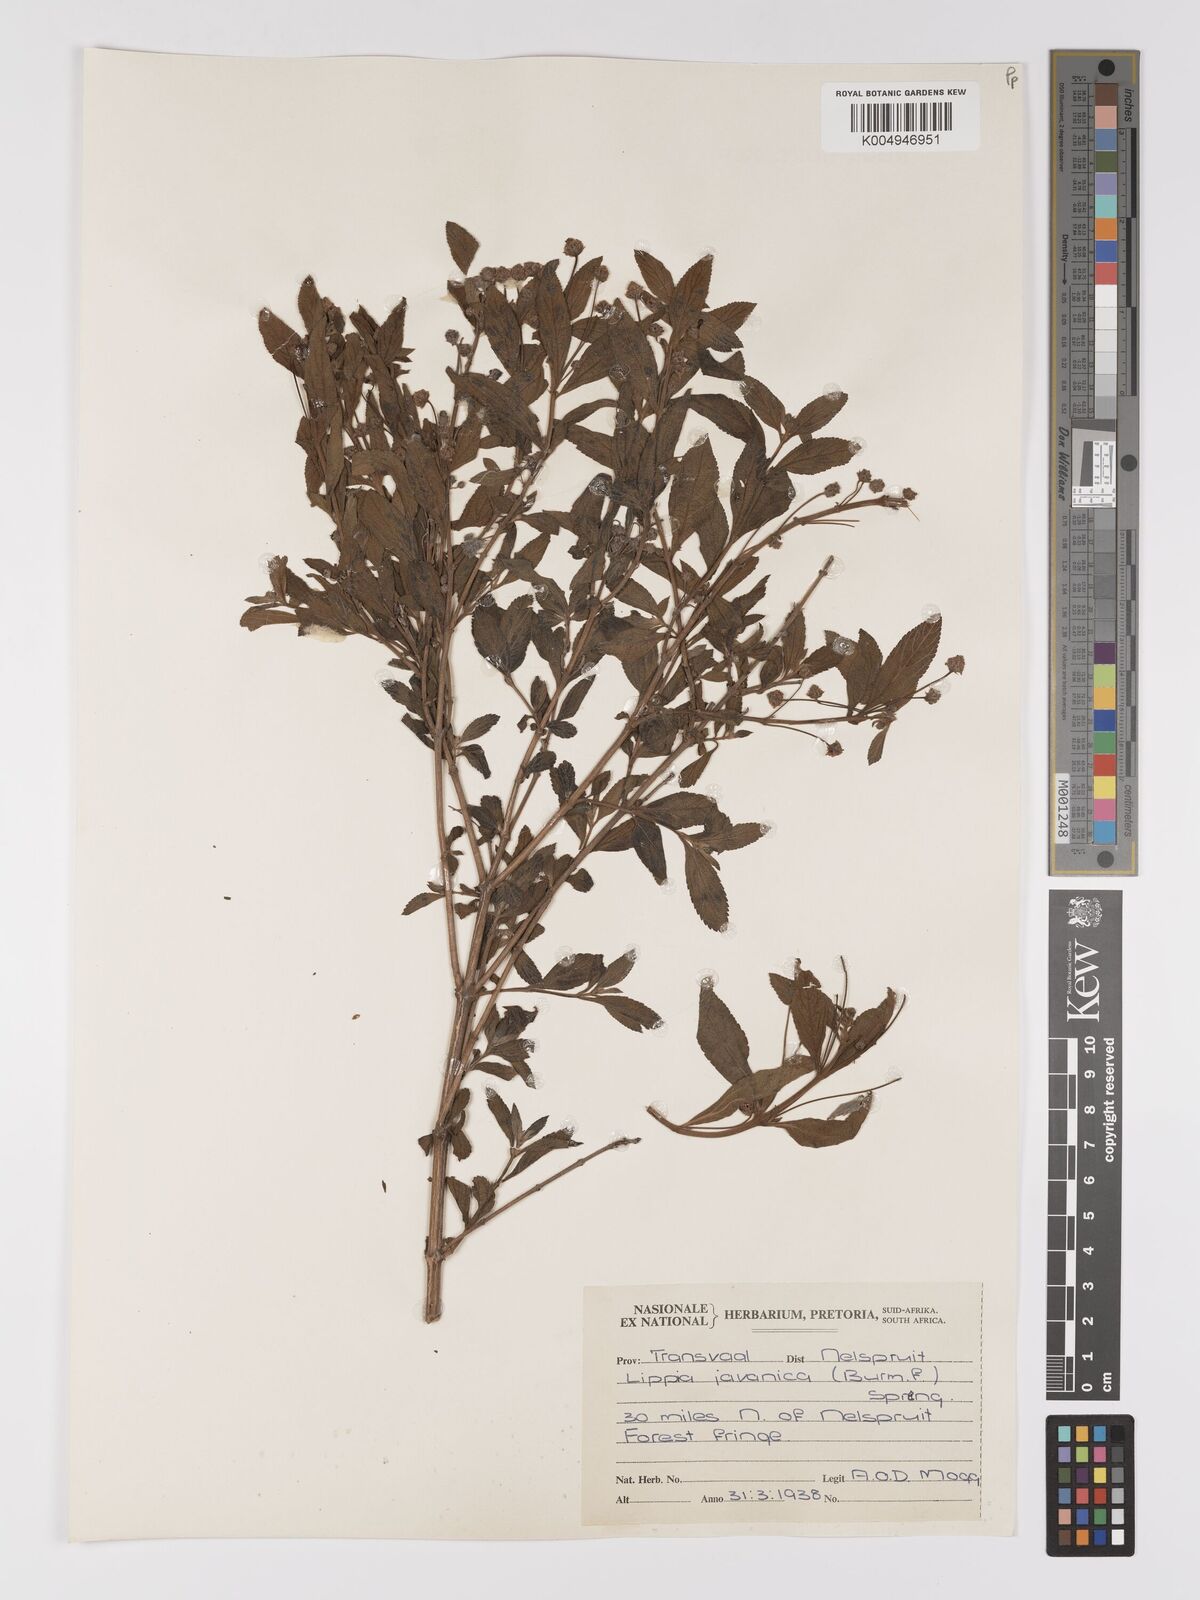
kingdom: Plantae
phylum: Tracheophyta
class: Magnoliopsida
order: Lamiales
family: Verbenaceae
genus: Lippia
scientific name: Lippia javanica
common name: Lemonbush
